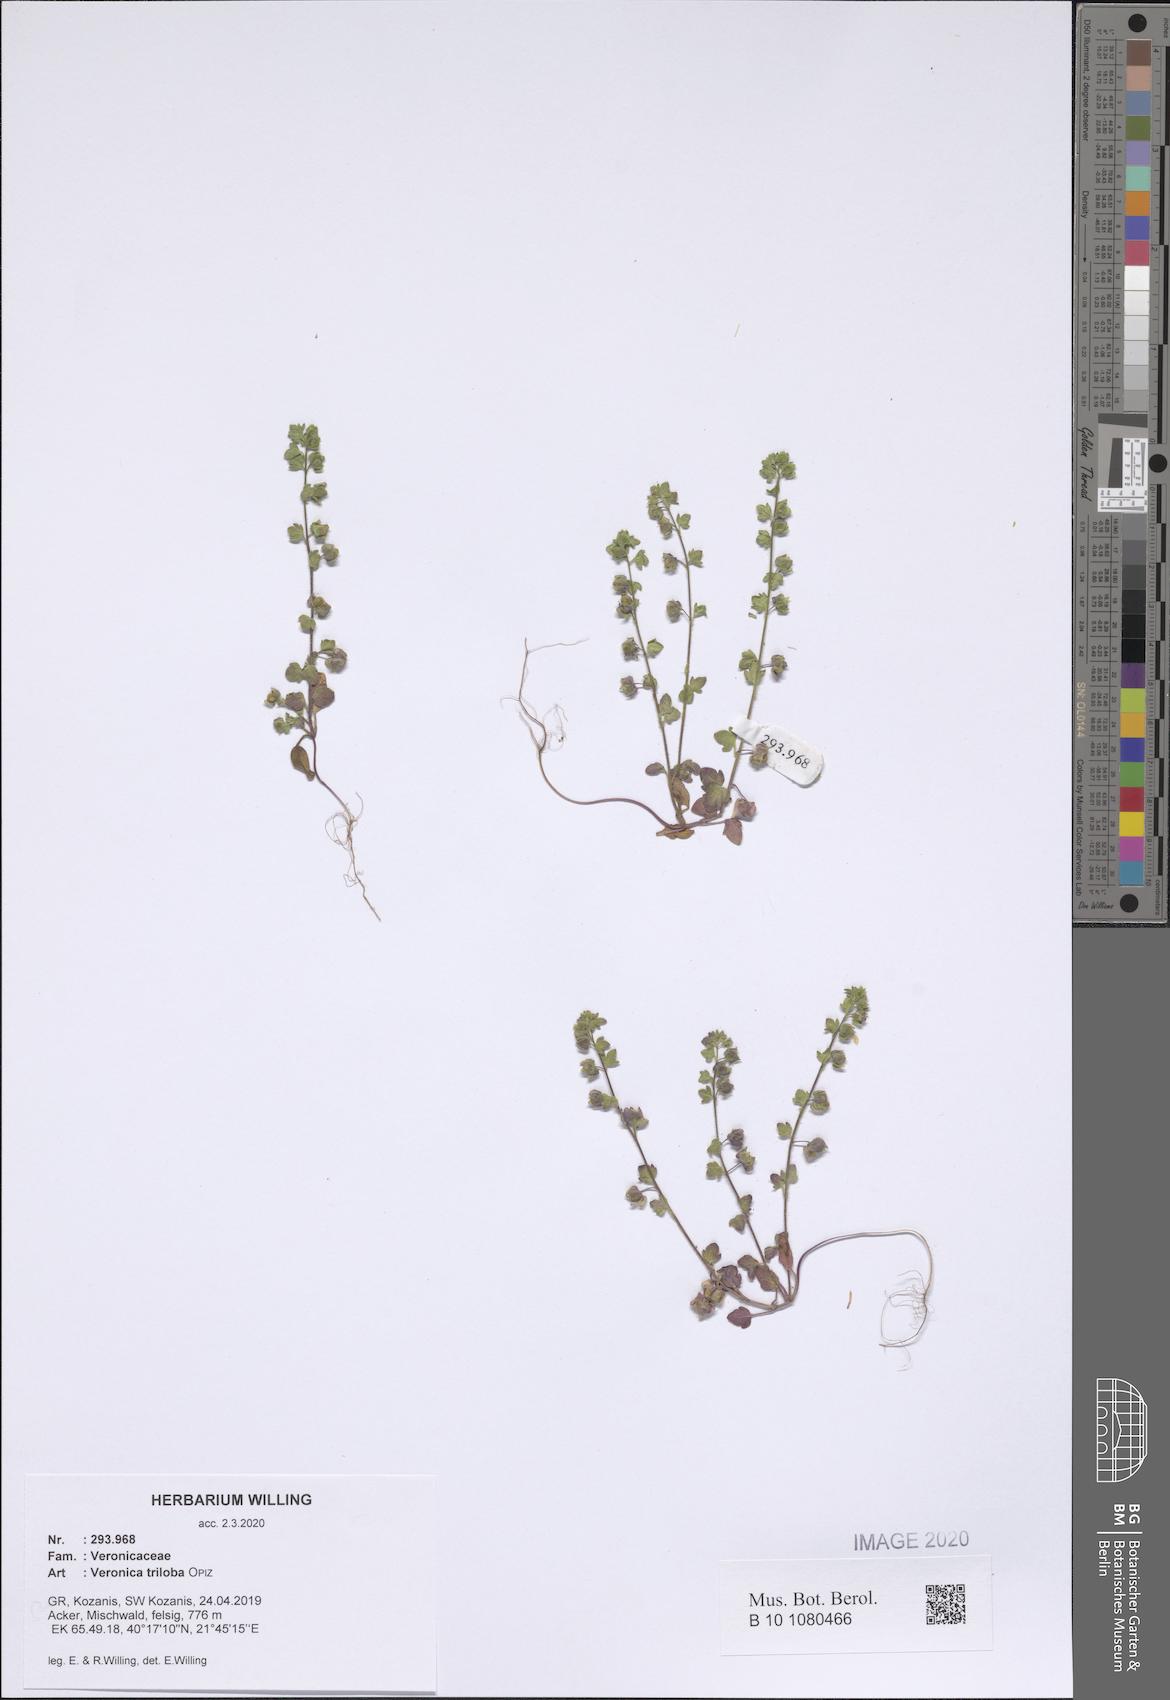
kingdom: Plantae
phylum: Tracheophyta
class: Magnoliopsida
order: Lamiales
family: Plantaginaceae
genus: Veronica
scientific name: Veronica triloba
